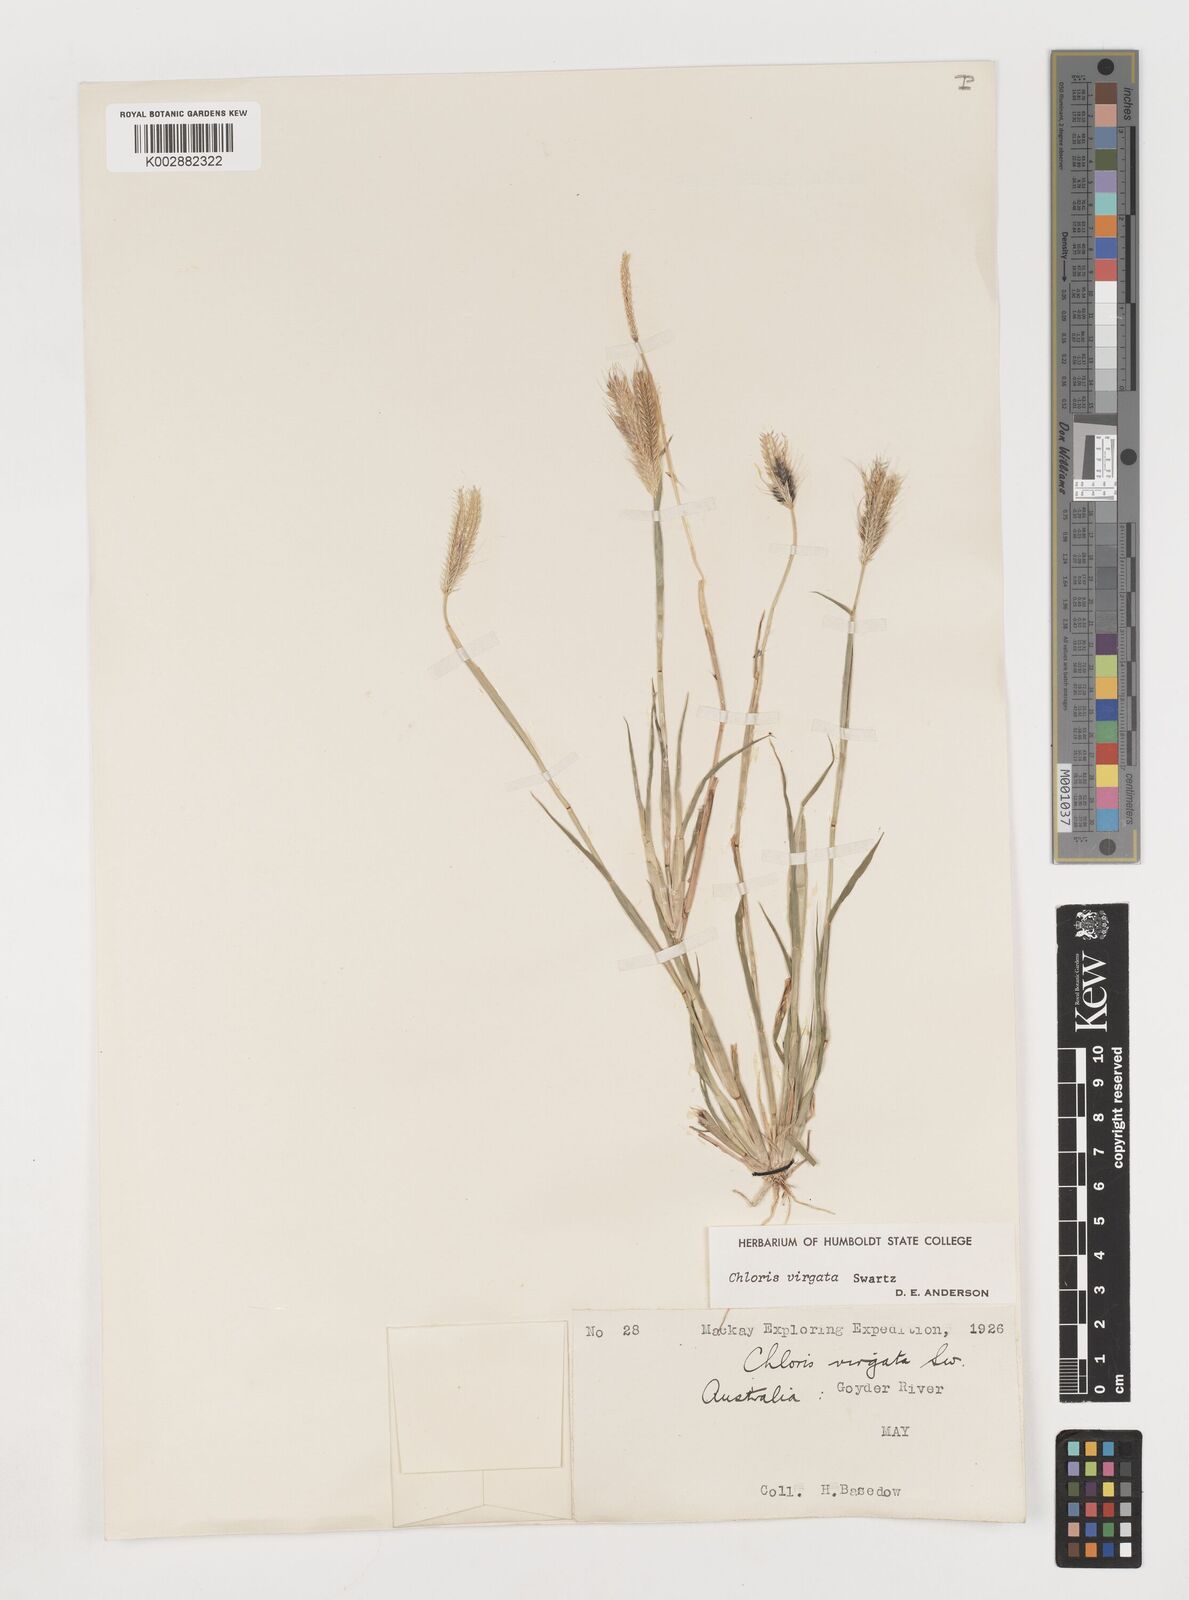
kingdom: Plantae
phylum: Tracheophyta
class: Liliopsida
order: Poales
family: Poaceae
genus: Chloris
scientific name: Chloris virgata
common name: Feathery rhodes-grass
